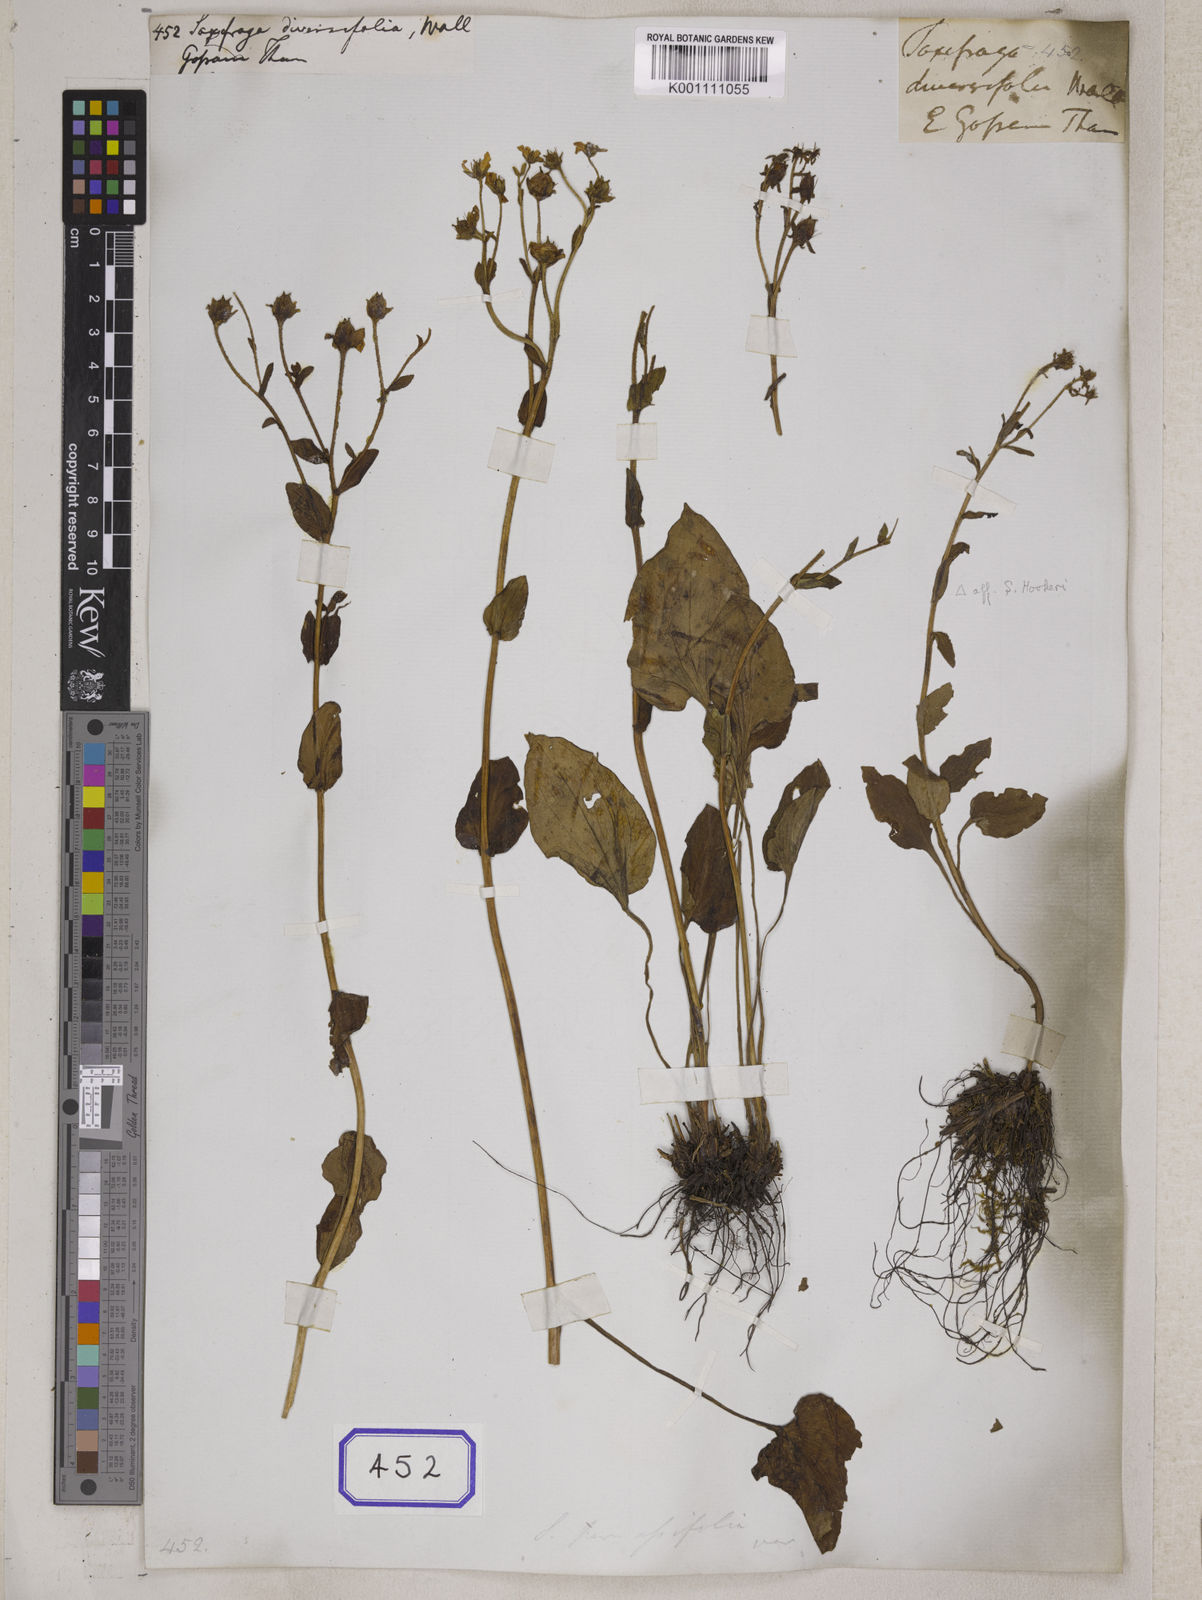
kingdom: Plantae
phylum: Tracheophyta
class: Magnoliopsida
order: Saxifragales
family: Saxifragaceae
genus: Saxifraga
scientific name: Saxifraga
